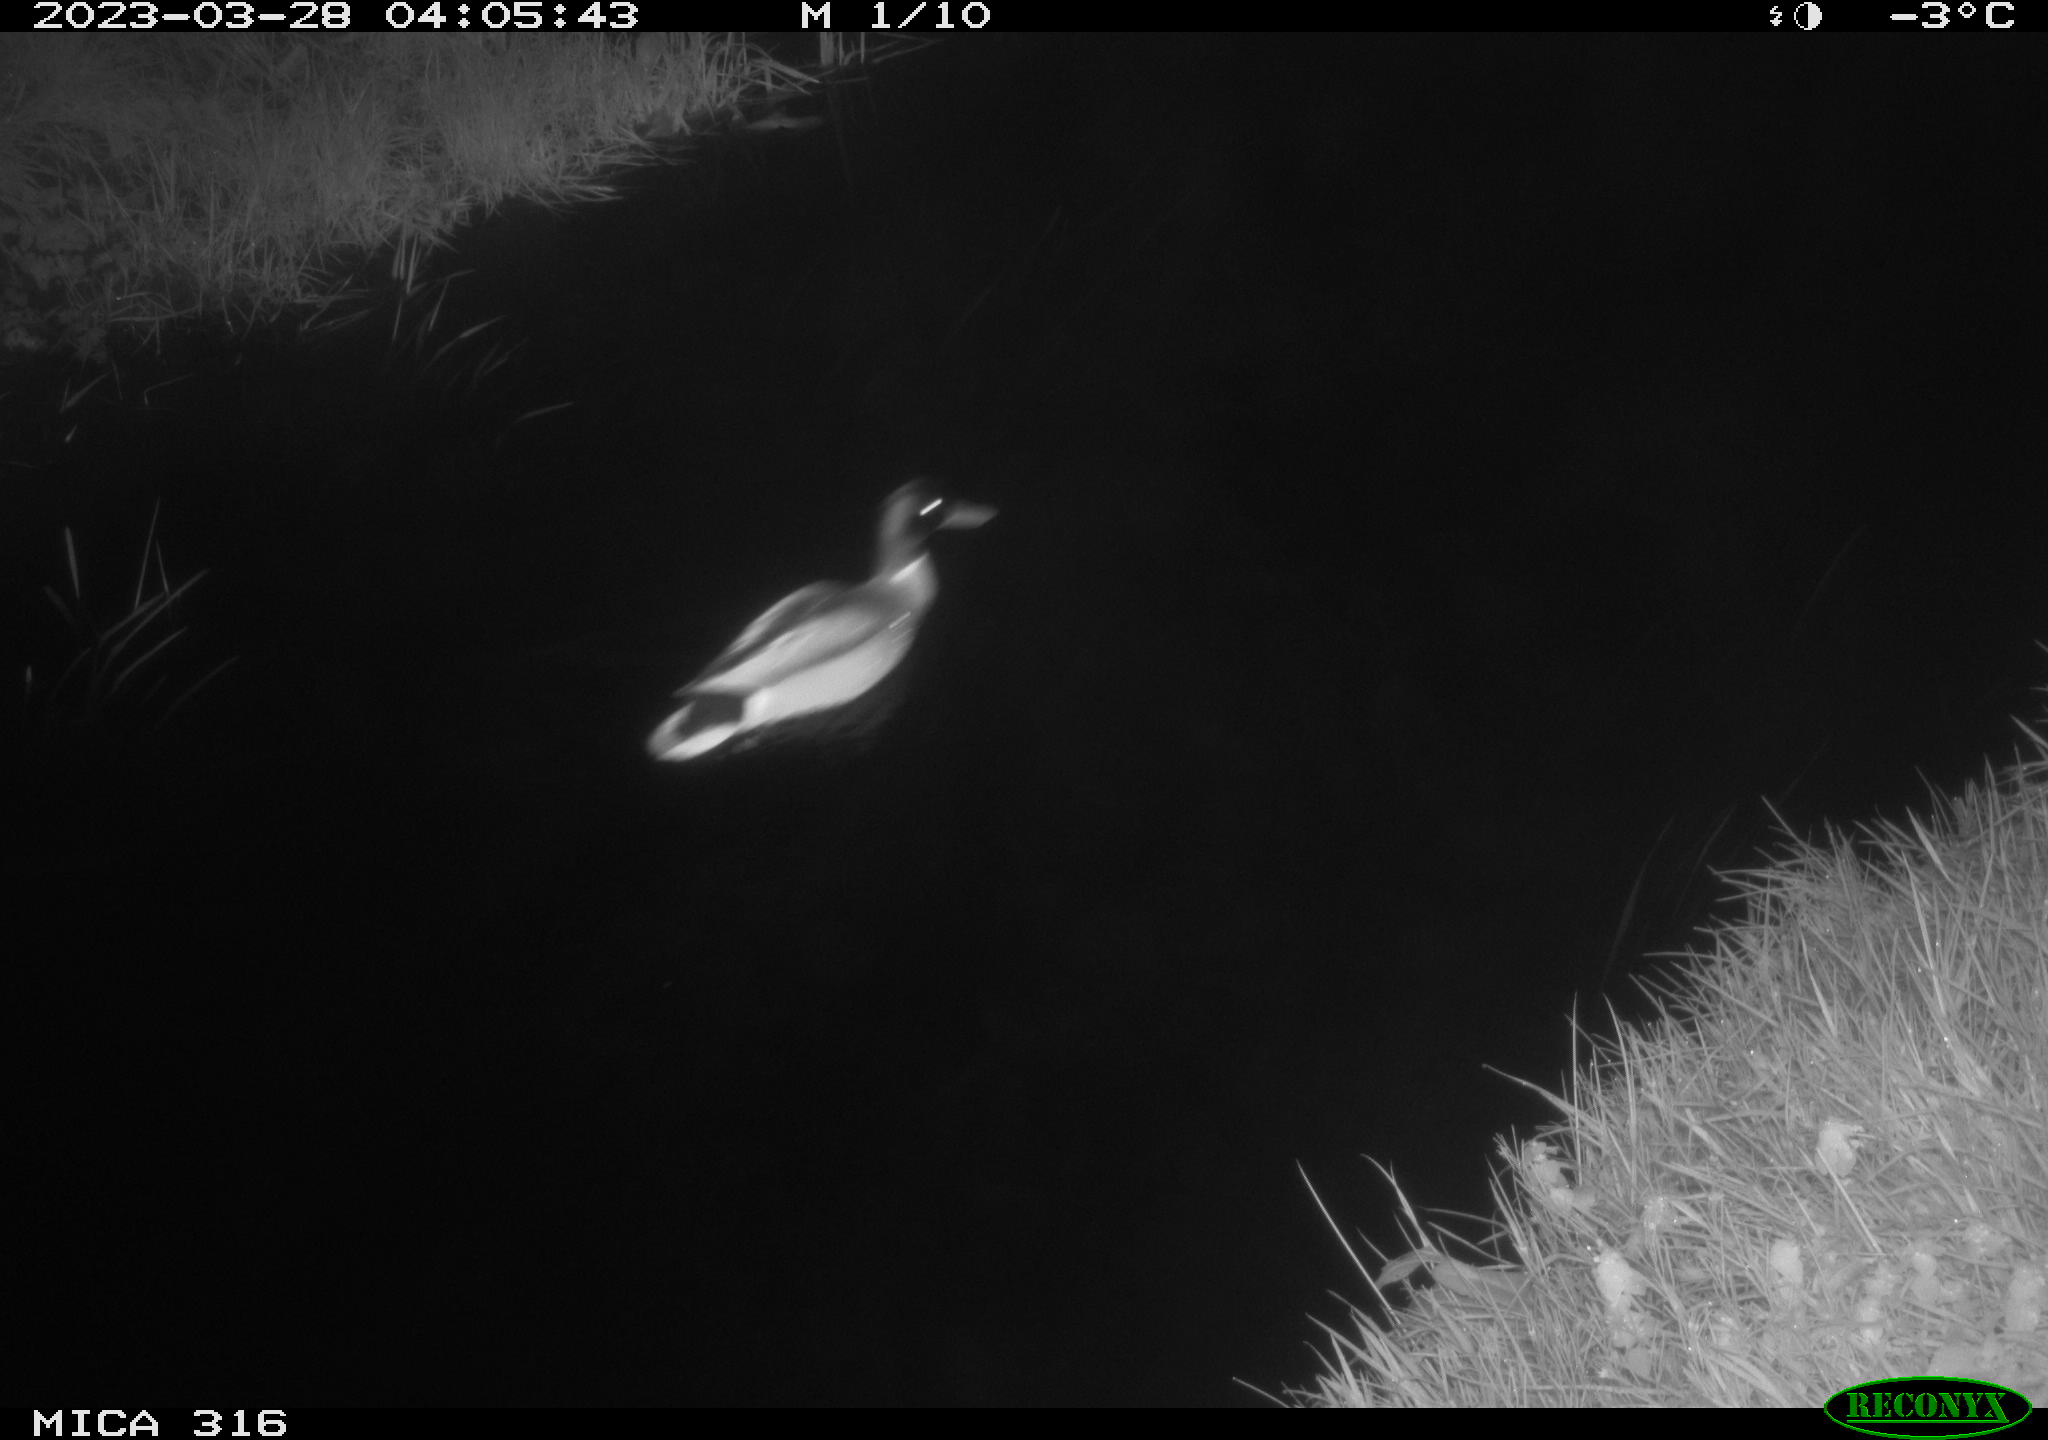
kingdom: Animalia
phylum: Chordata
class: Aves
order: Anseriformes
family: Anatidae
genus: Anas
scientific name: Anas
